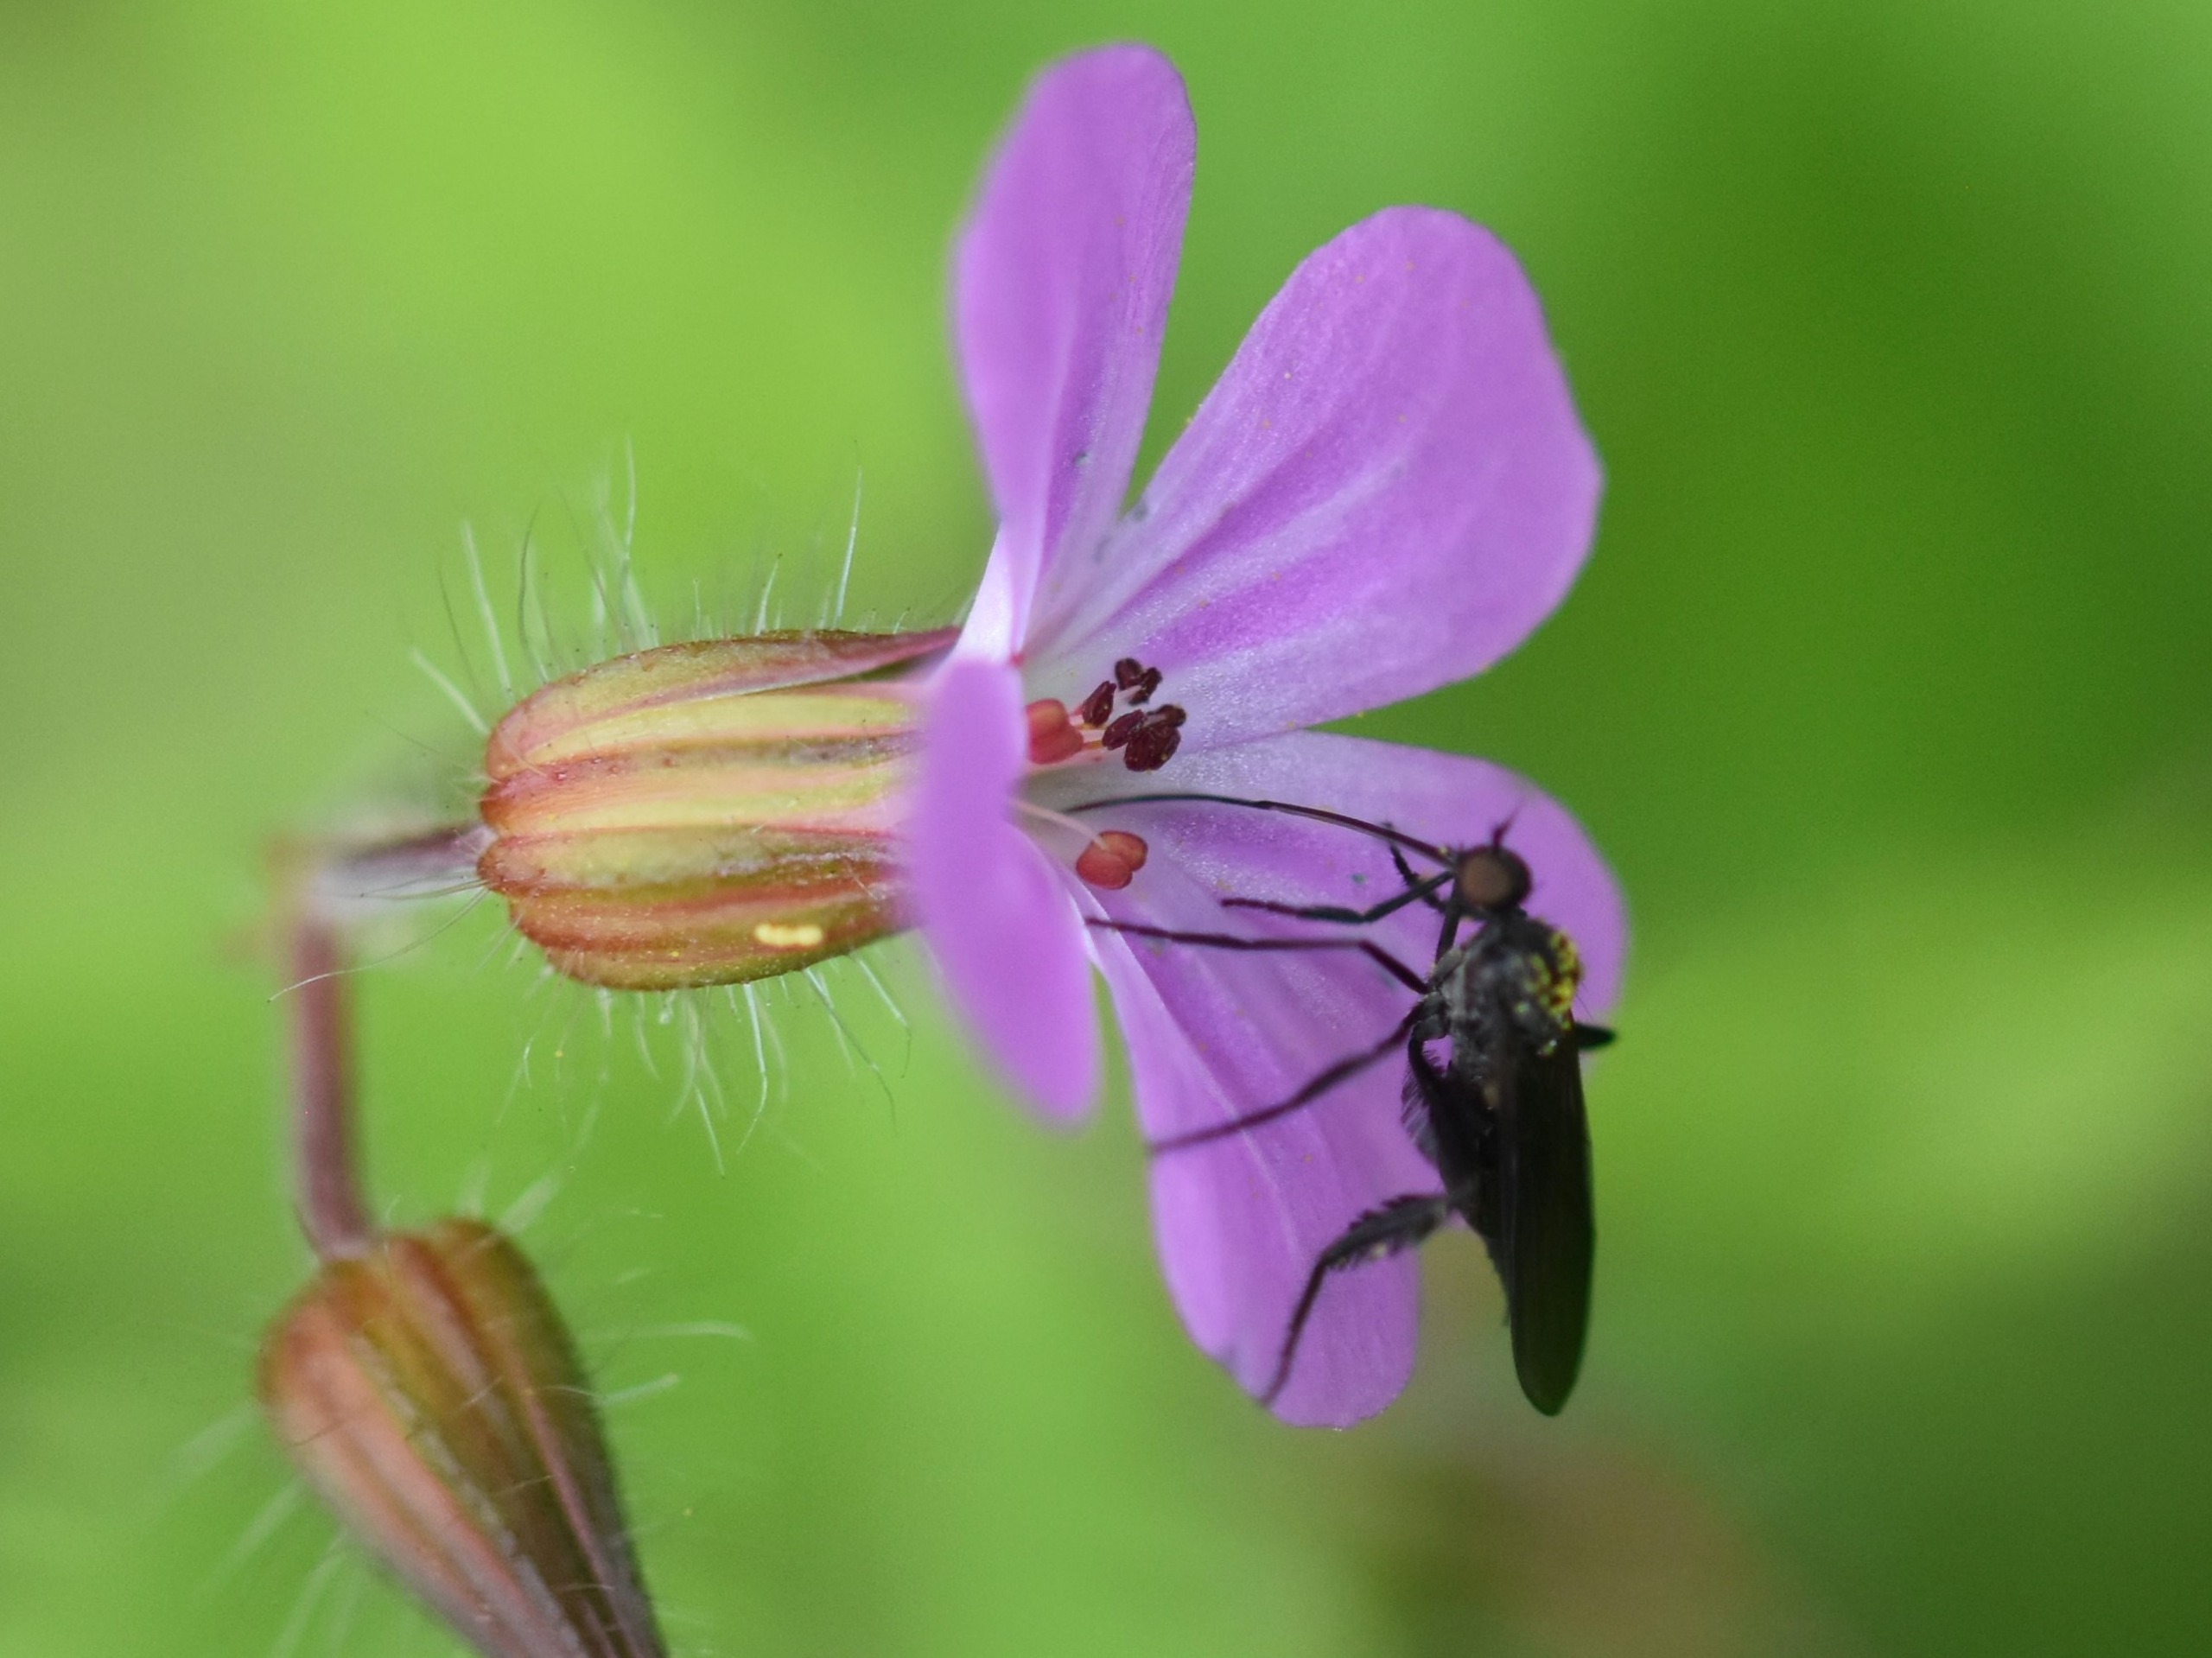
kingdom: Animalia
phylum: Arthropoda
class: Insecta
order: Diptera
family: Empididae
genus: Empis
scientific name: Empis pennipes
